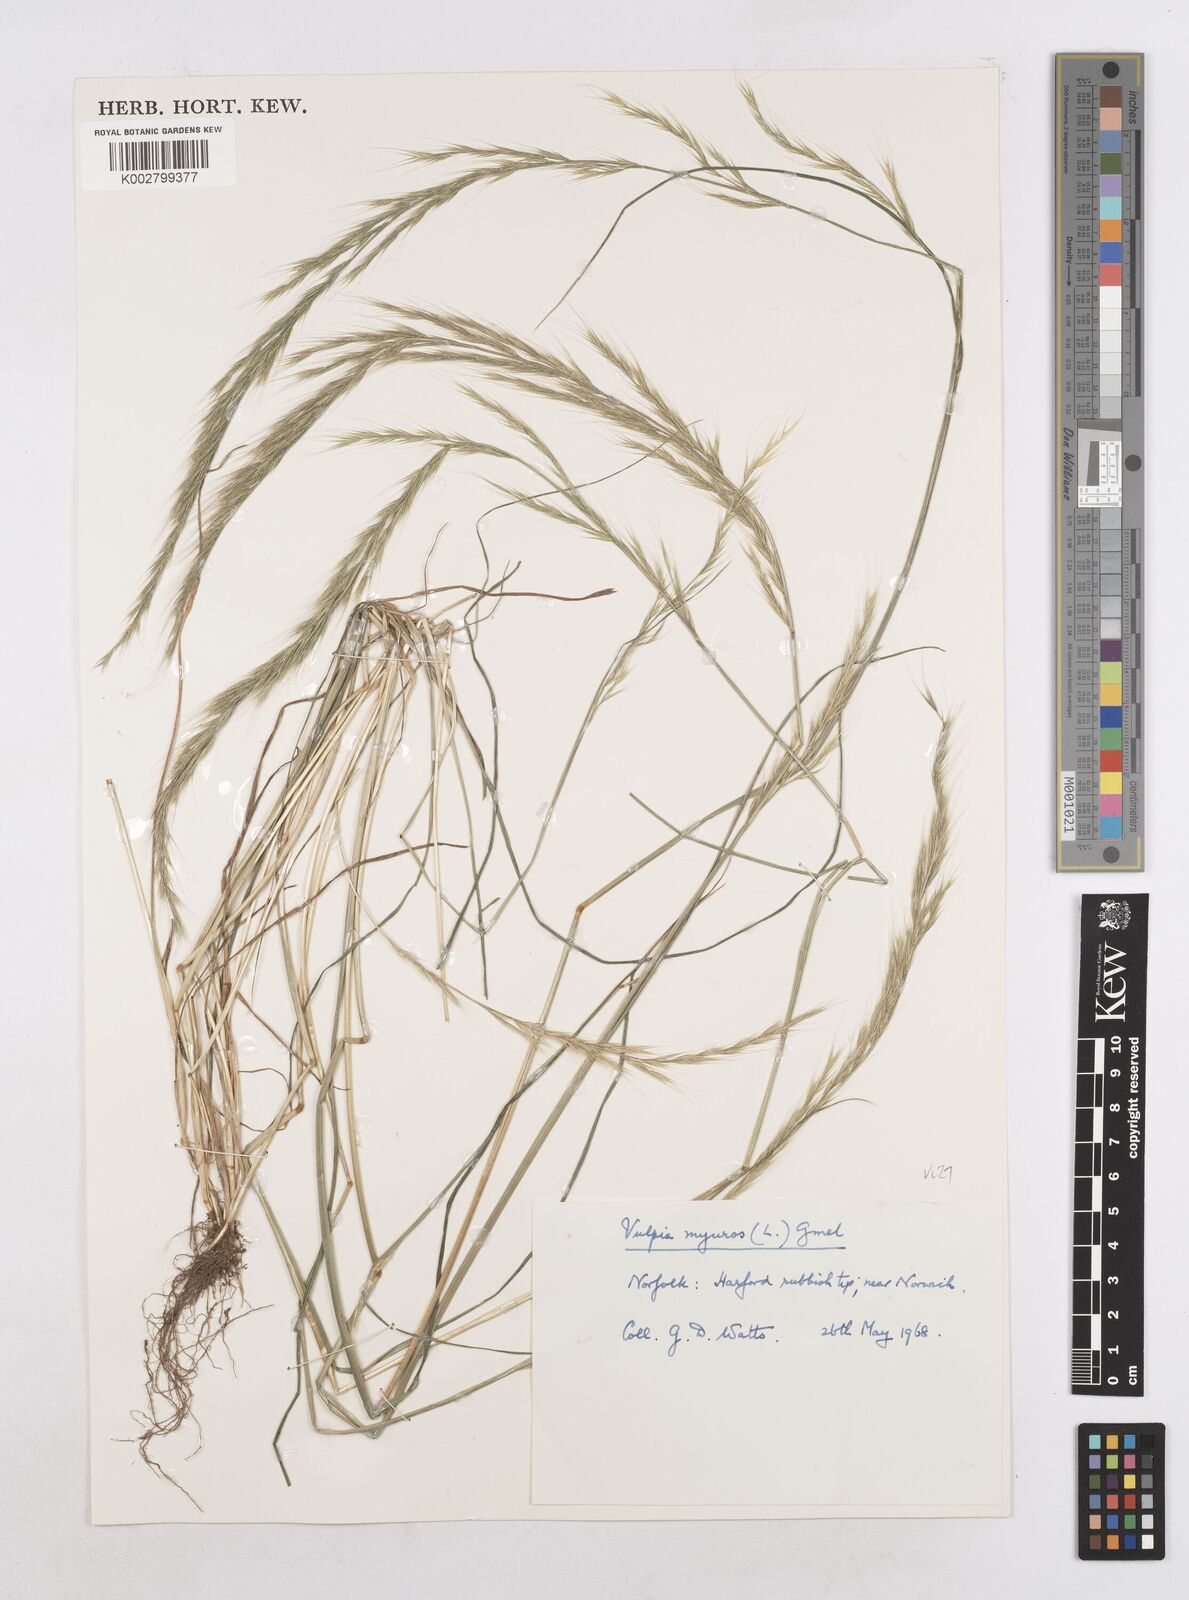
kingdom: Plantae
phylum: Tracheophyta
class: Liliopsida
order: Poales
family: Poaceae
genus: Festuca
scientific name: Festuca myuros
